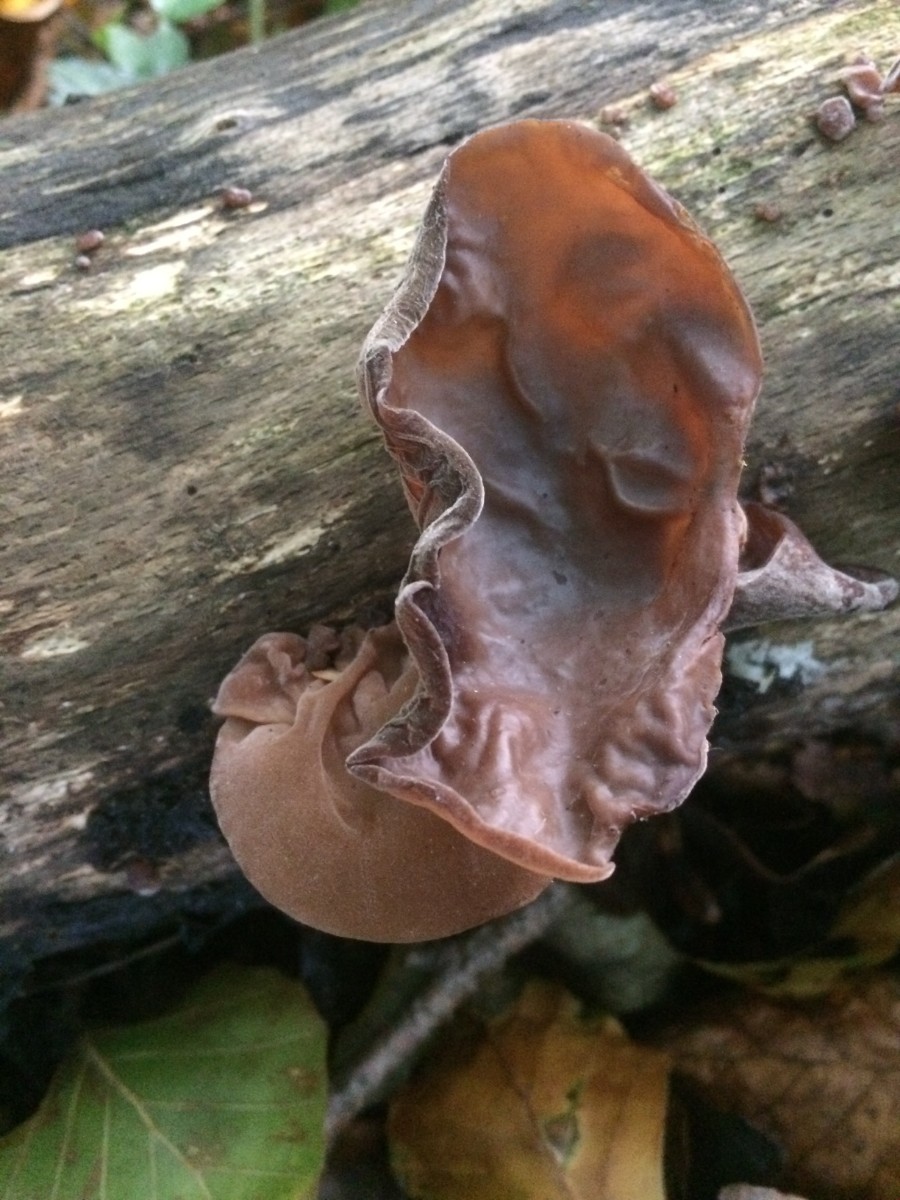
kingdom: Fungi
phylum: Basidiomycota
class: Agaricomycetes
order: Auriculariales
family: Auriculariaceae
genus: Auricularia
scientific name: Auricularia auricula-judae
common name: almindelig judasøre
